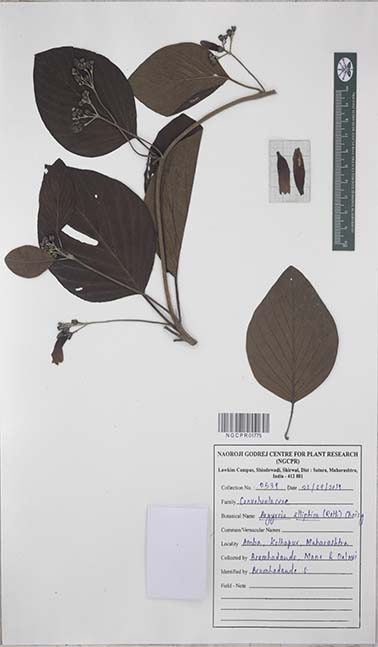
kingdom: Plantae
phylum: Tracheophyta
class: Magnoliopsida
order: Solanales
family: Convolvulaceae
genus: Argyreia
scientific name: Argyreia elliptica
